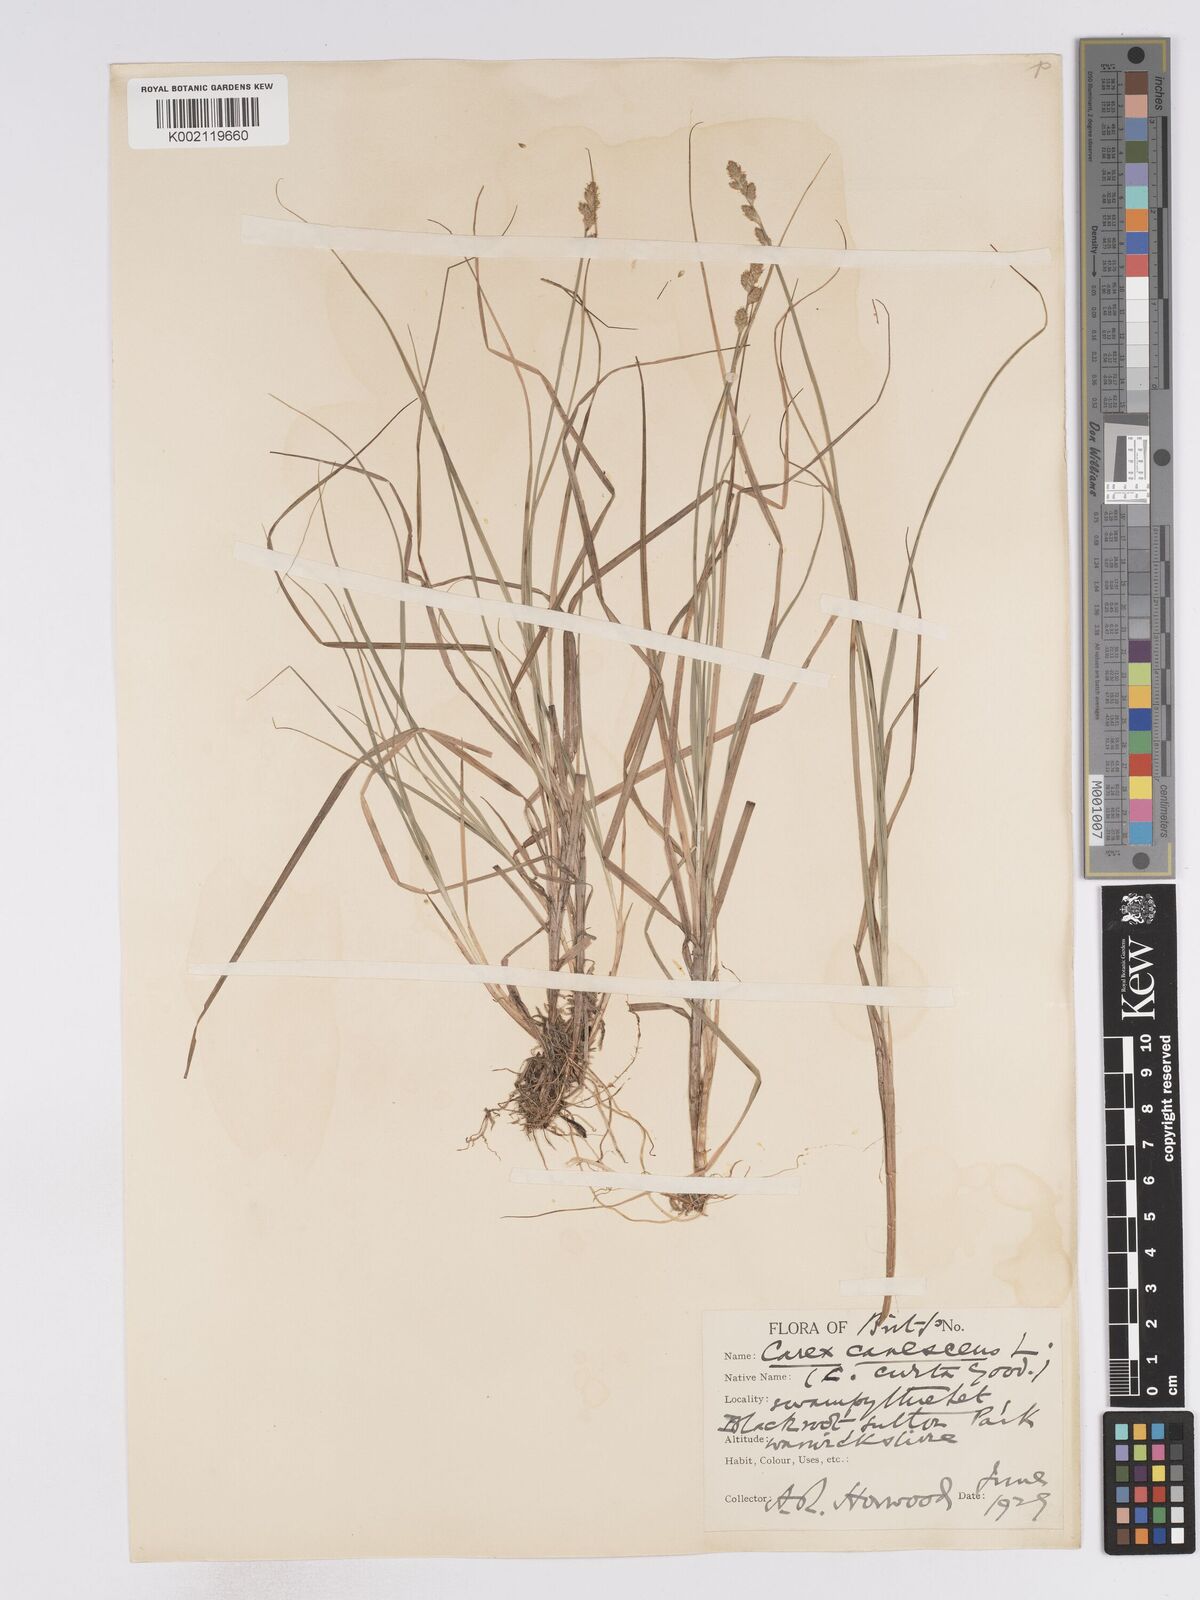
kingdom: Plantae
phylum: Tracheophyta
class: Liliopsida
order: Poales
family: Cyperaceae
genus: Carex
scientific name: Carex curta
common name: White sedge
